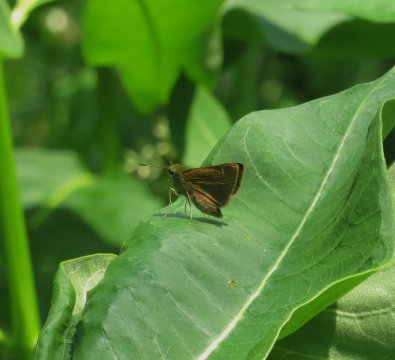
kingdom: Animalia
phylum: Arthropoda
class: Insecta
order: Lepidoptera
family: Hesperiidae
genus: Vernia
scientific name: Vernia verna
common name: Little Glassywing
